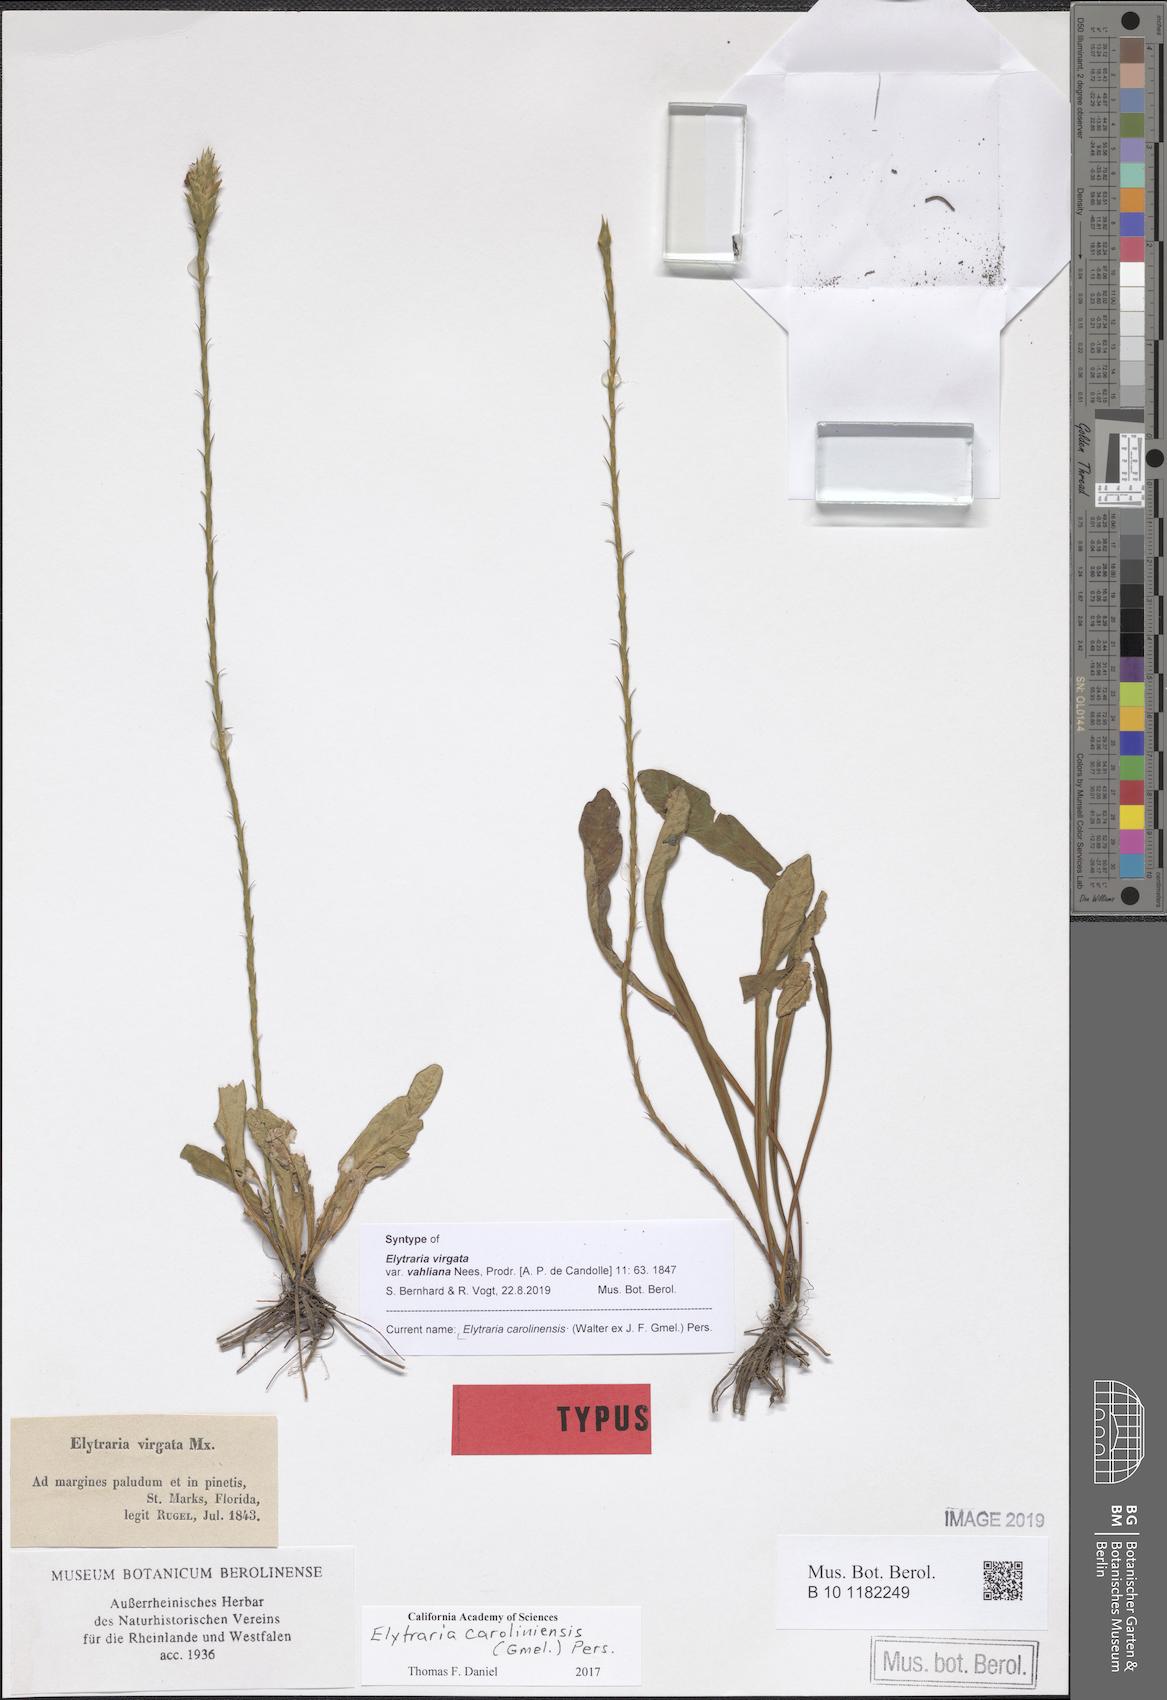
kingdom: Plantae
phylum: Tracheophyta
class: Magnoliopsida
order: Lamiales
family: Acanthaceae
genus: Elytraria
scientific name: Elytraria caroliniensis
